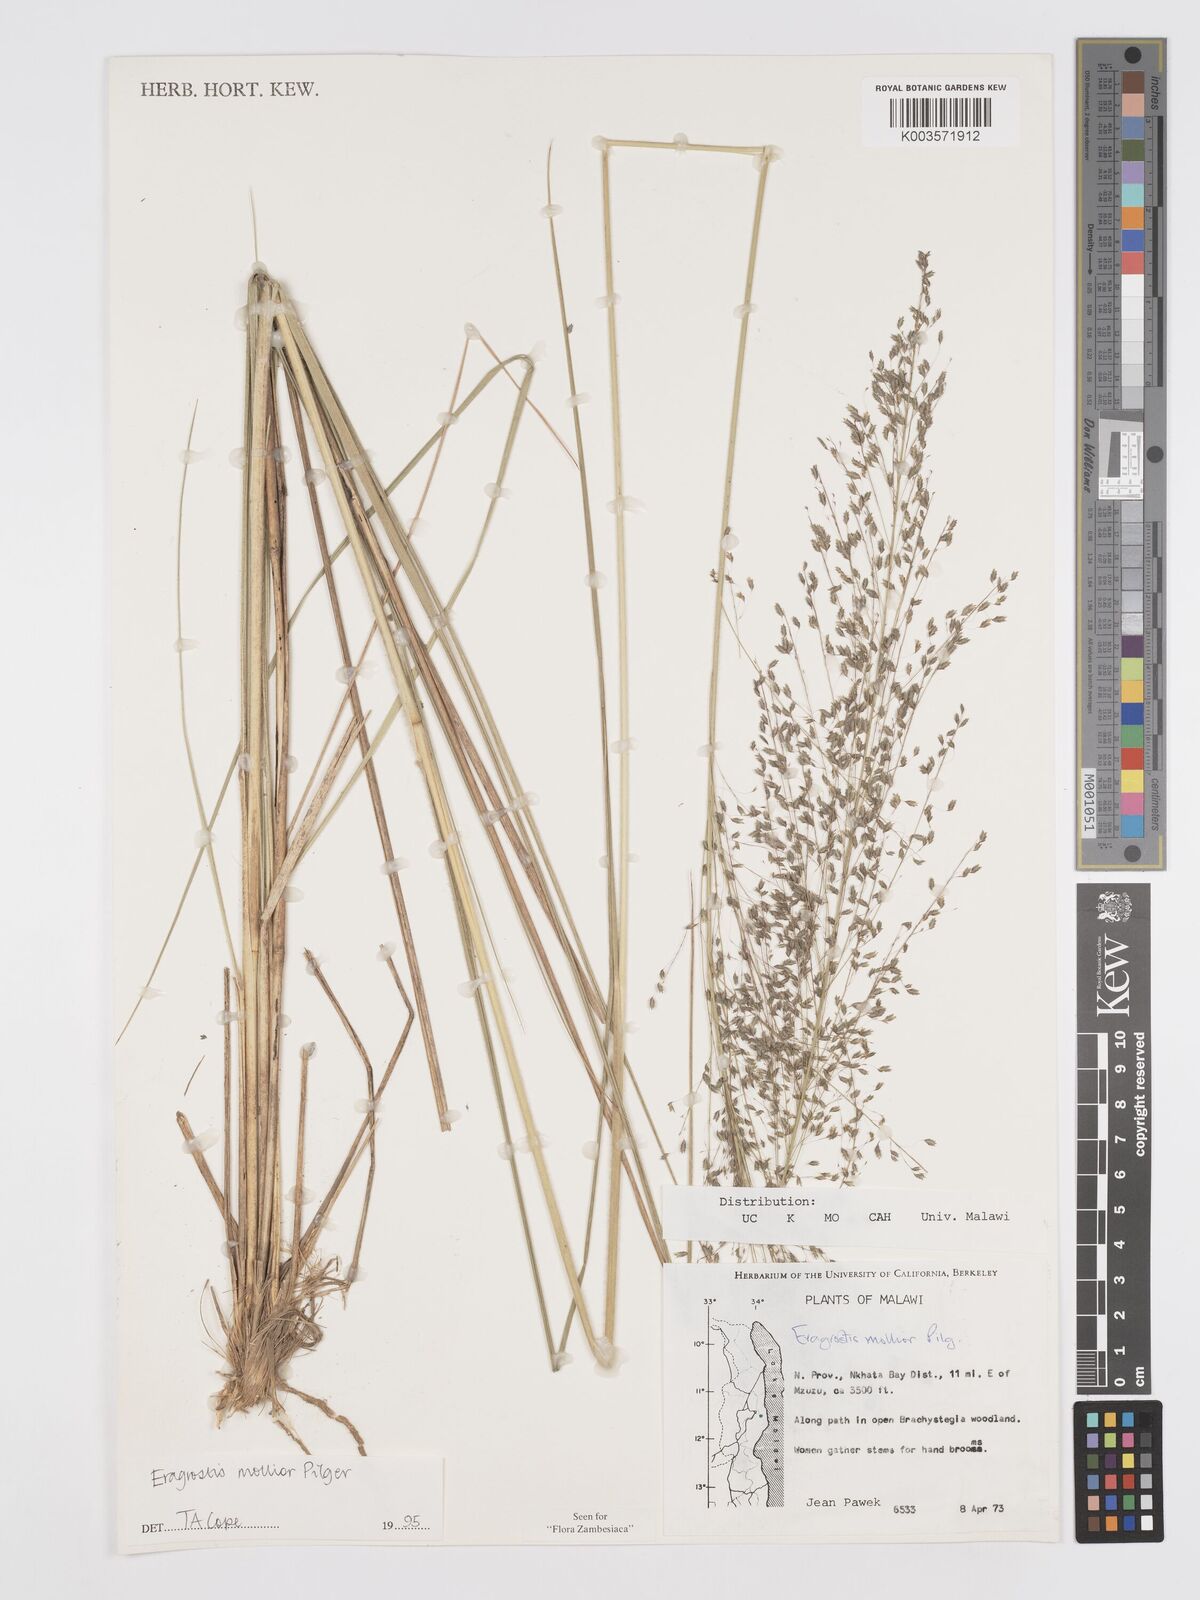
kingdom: Plantae
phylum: Tracheophyta
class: Liliopsida
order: Poales
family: Poaceae
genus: Eragrostis
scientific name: Eragrostis mollior
